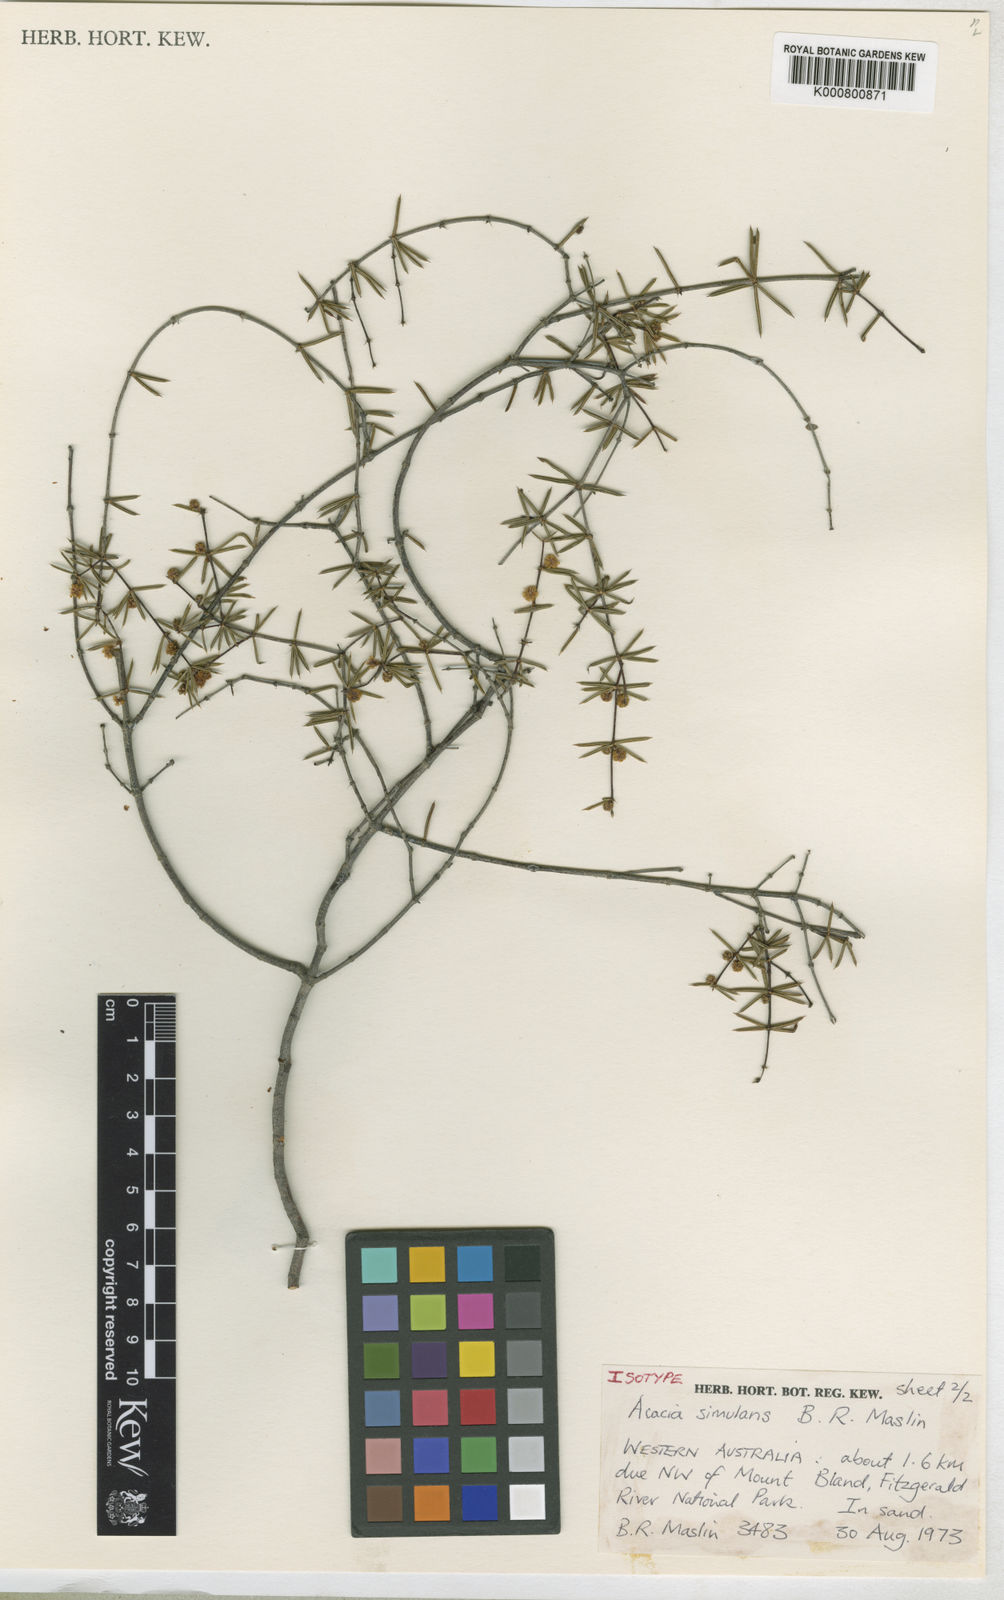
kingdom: Plantae
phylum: Tracheophyta
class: Magnoliopsida
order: Fabales
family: Fabaceae
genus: Acacia
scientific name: Acacia simulans
